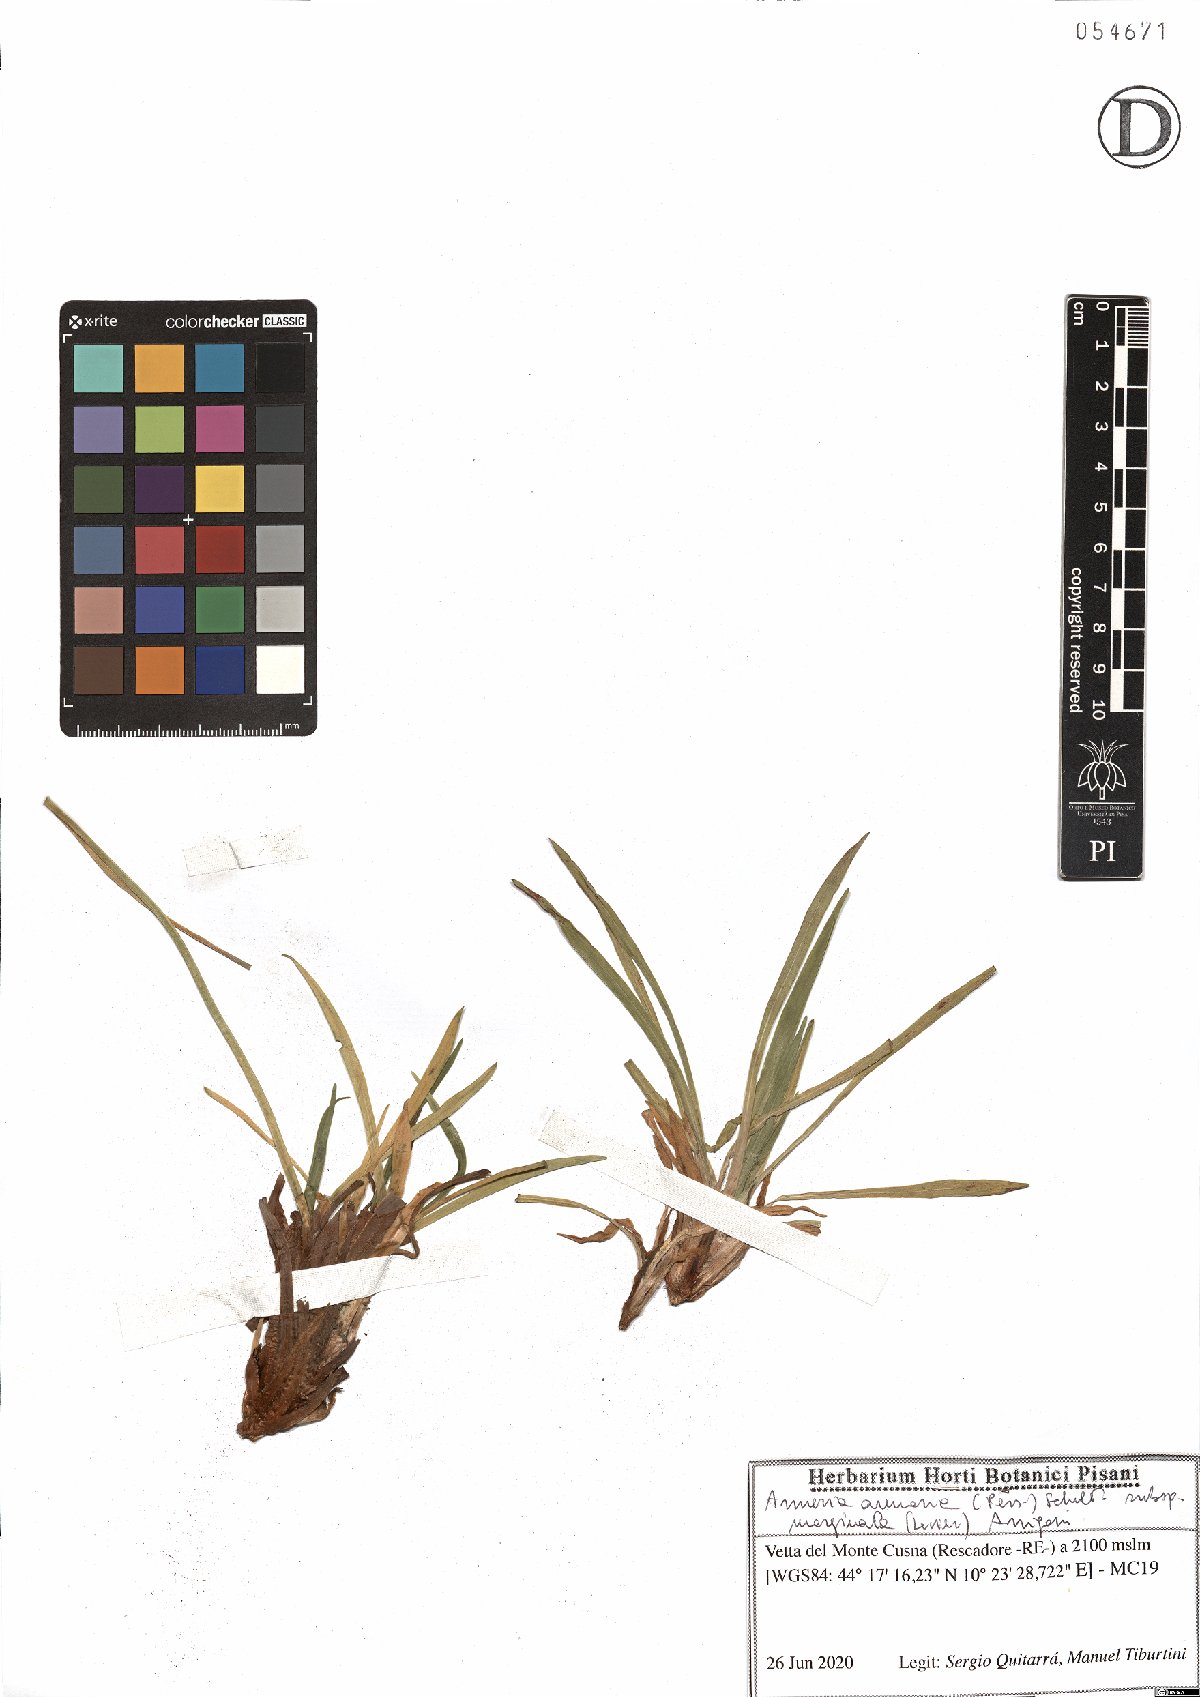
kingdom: Plantae
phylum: Tracheophyta
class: Magnoliopsida
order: Caryophyllales
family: Plumbaginaceae
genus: Armeria
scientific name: Armeria arenaria
